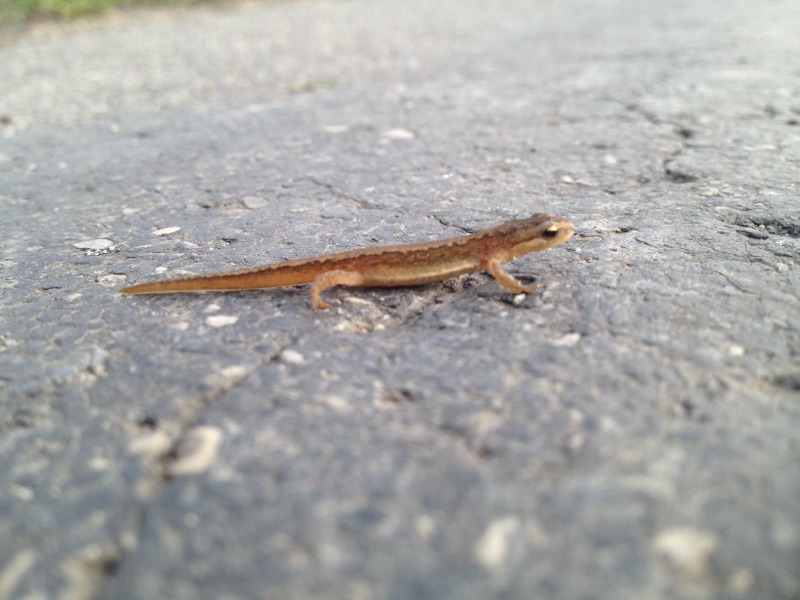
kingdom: Animalia
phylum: Chordata
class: Amphibia
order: Caudata
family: Salamandridae
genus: Lissotriton
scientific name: Lissotriton vulgaris
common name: Smooth newt
